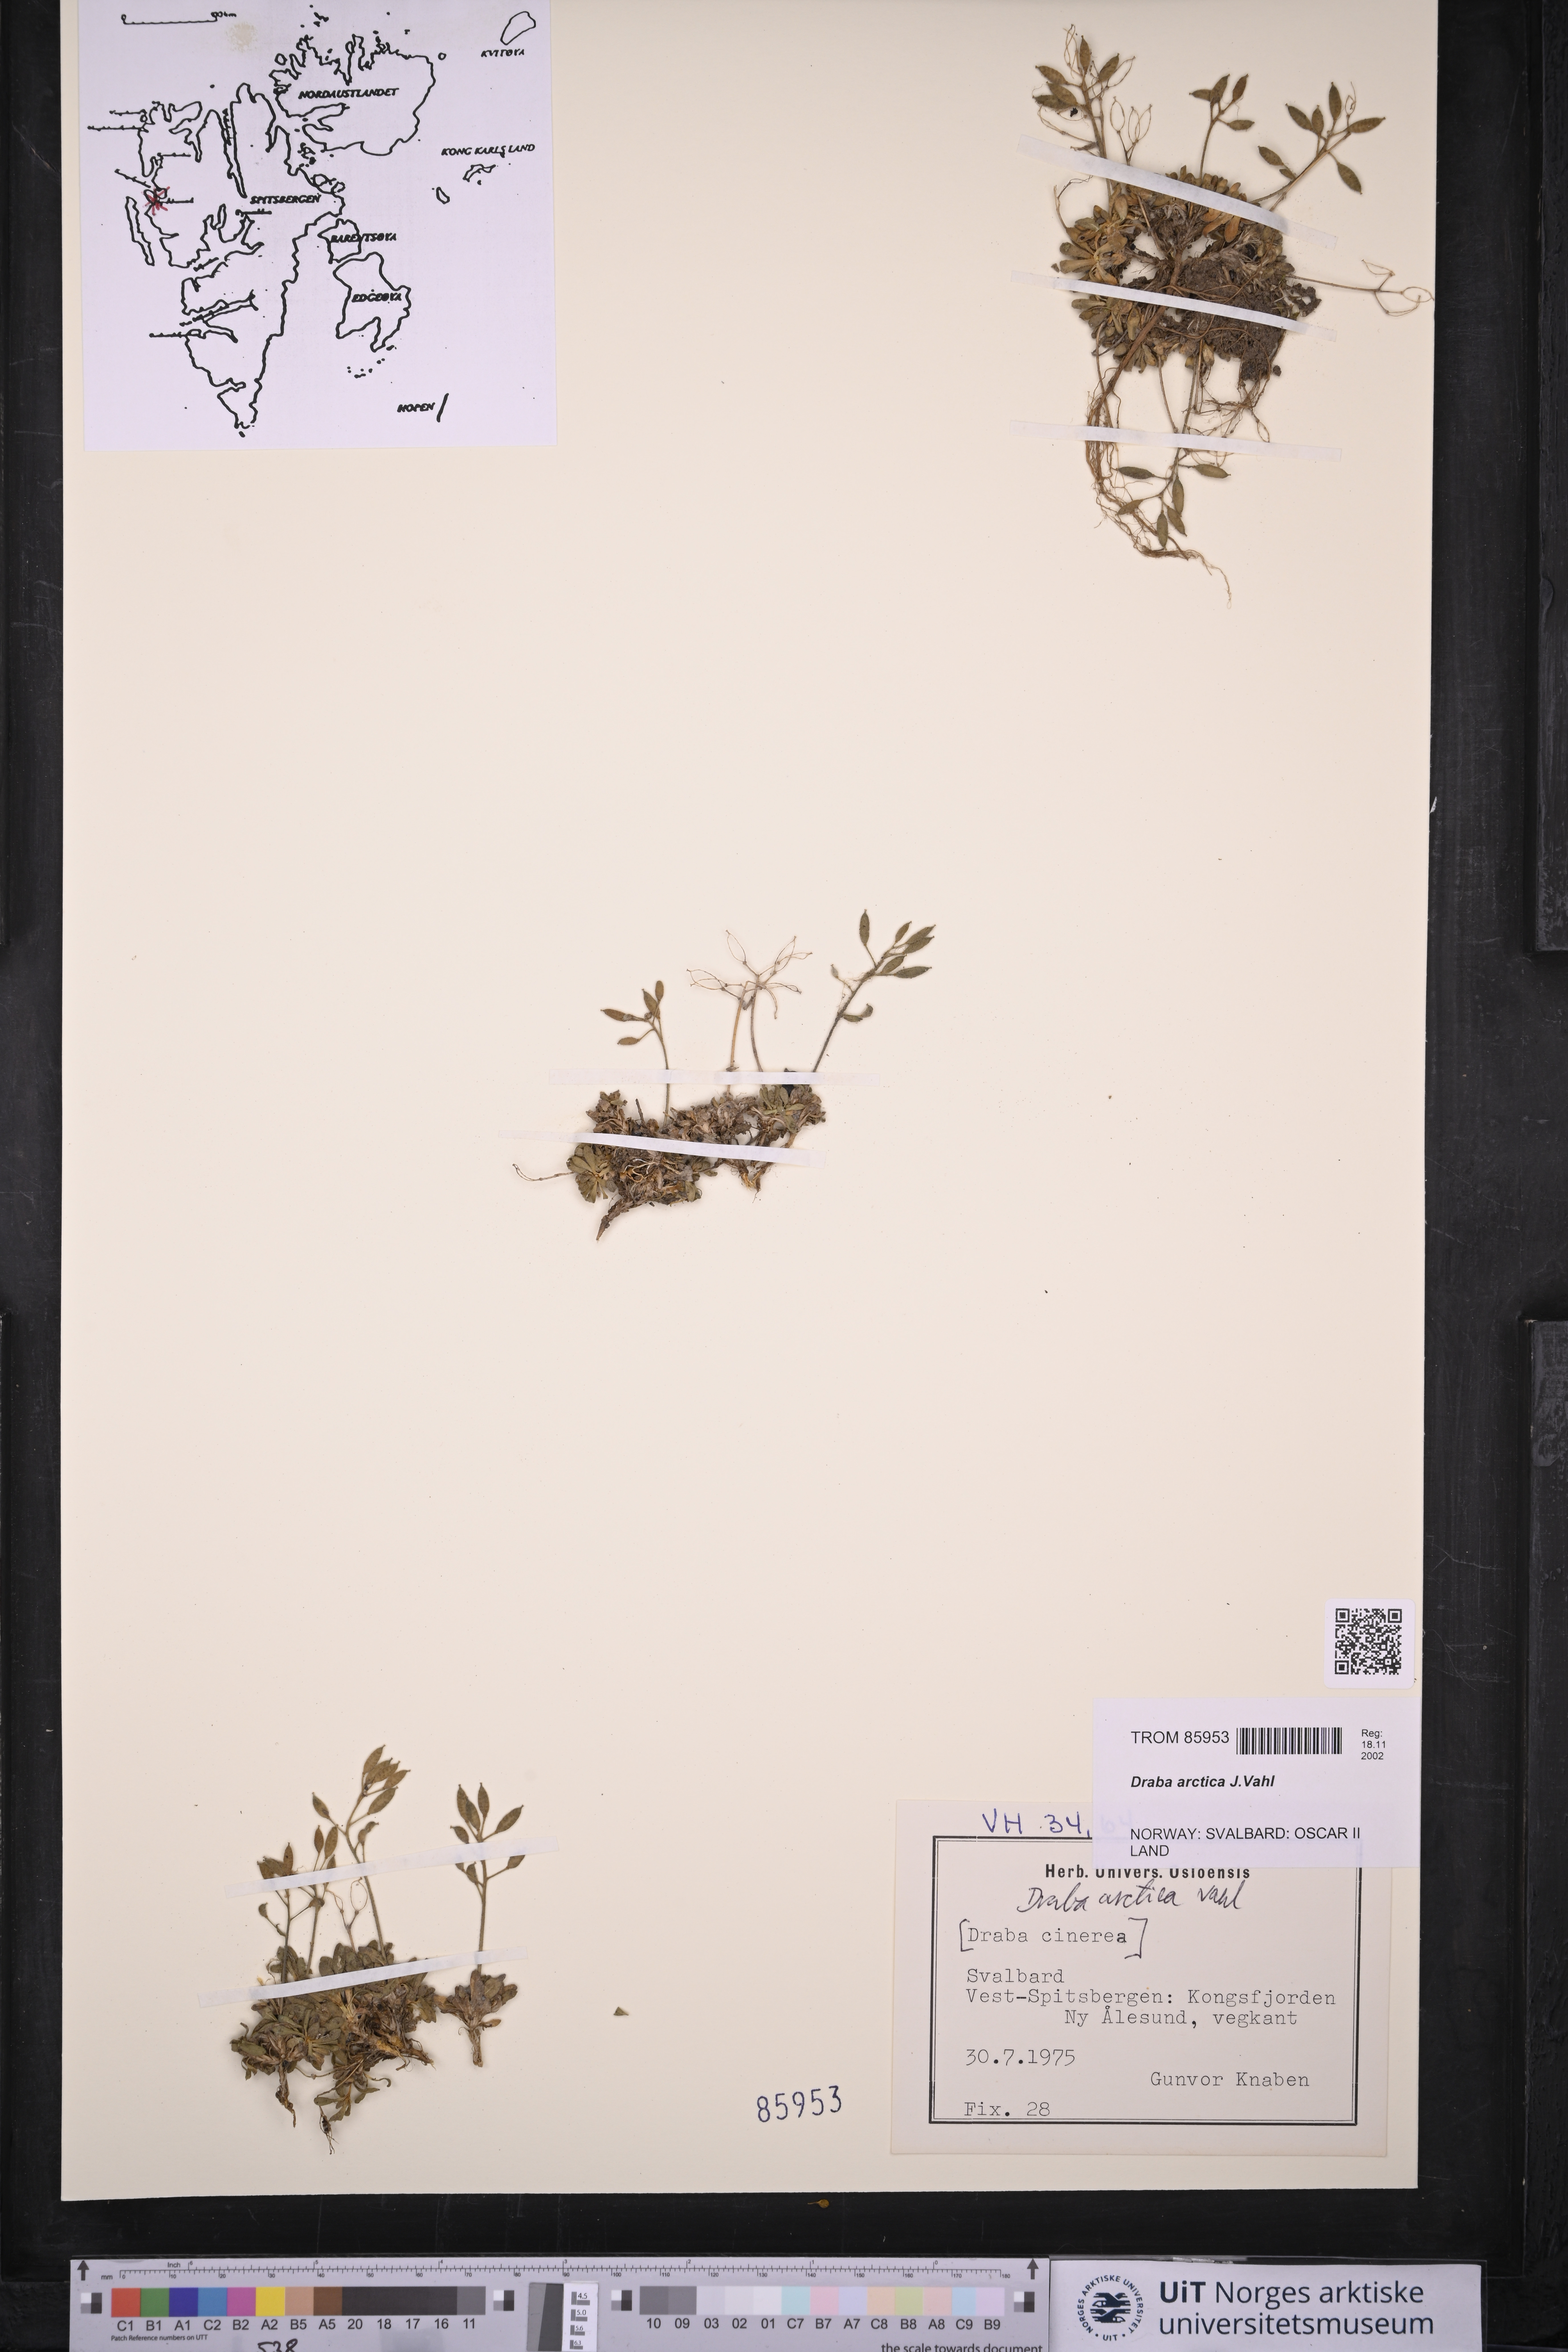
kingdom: Plantae
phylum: Tracheophyta
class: Magnoliopsida
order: Brassicales
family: Brassicaceae
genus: Draba
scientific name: Draba arctica
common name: Arctic draba
